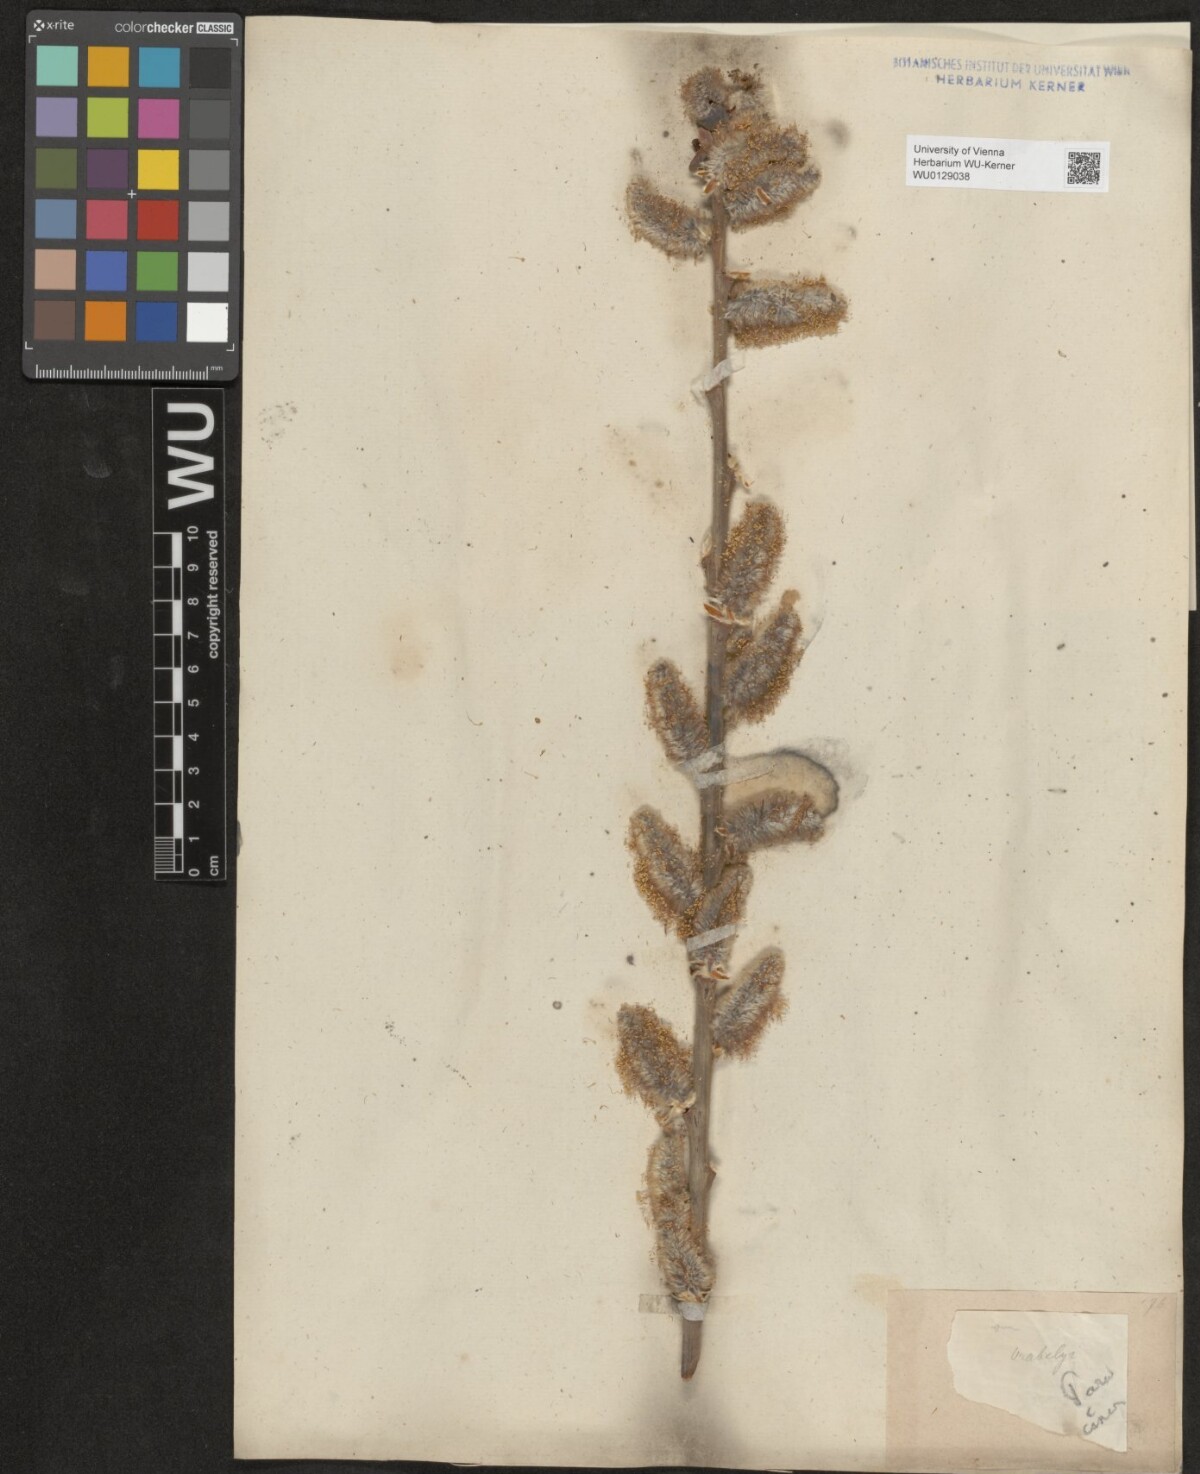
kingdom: Plantae
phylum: Tracheophyta
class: Magnoliopsida
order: Malpighiales
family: Salicaceae
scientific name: Salicaceae
